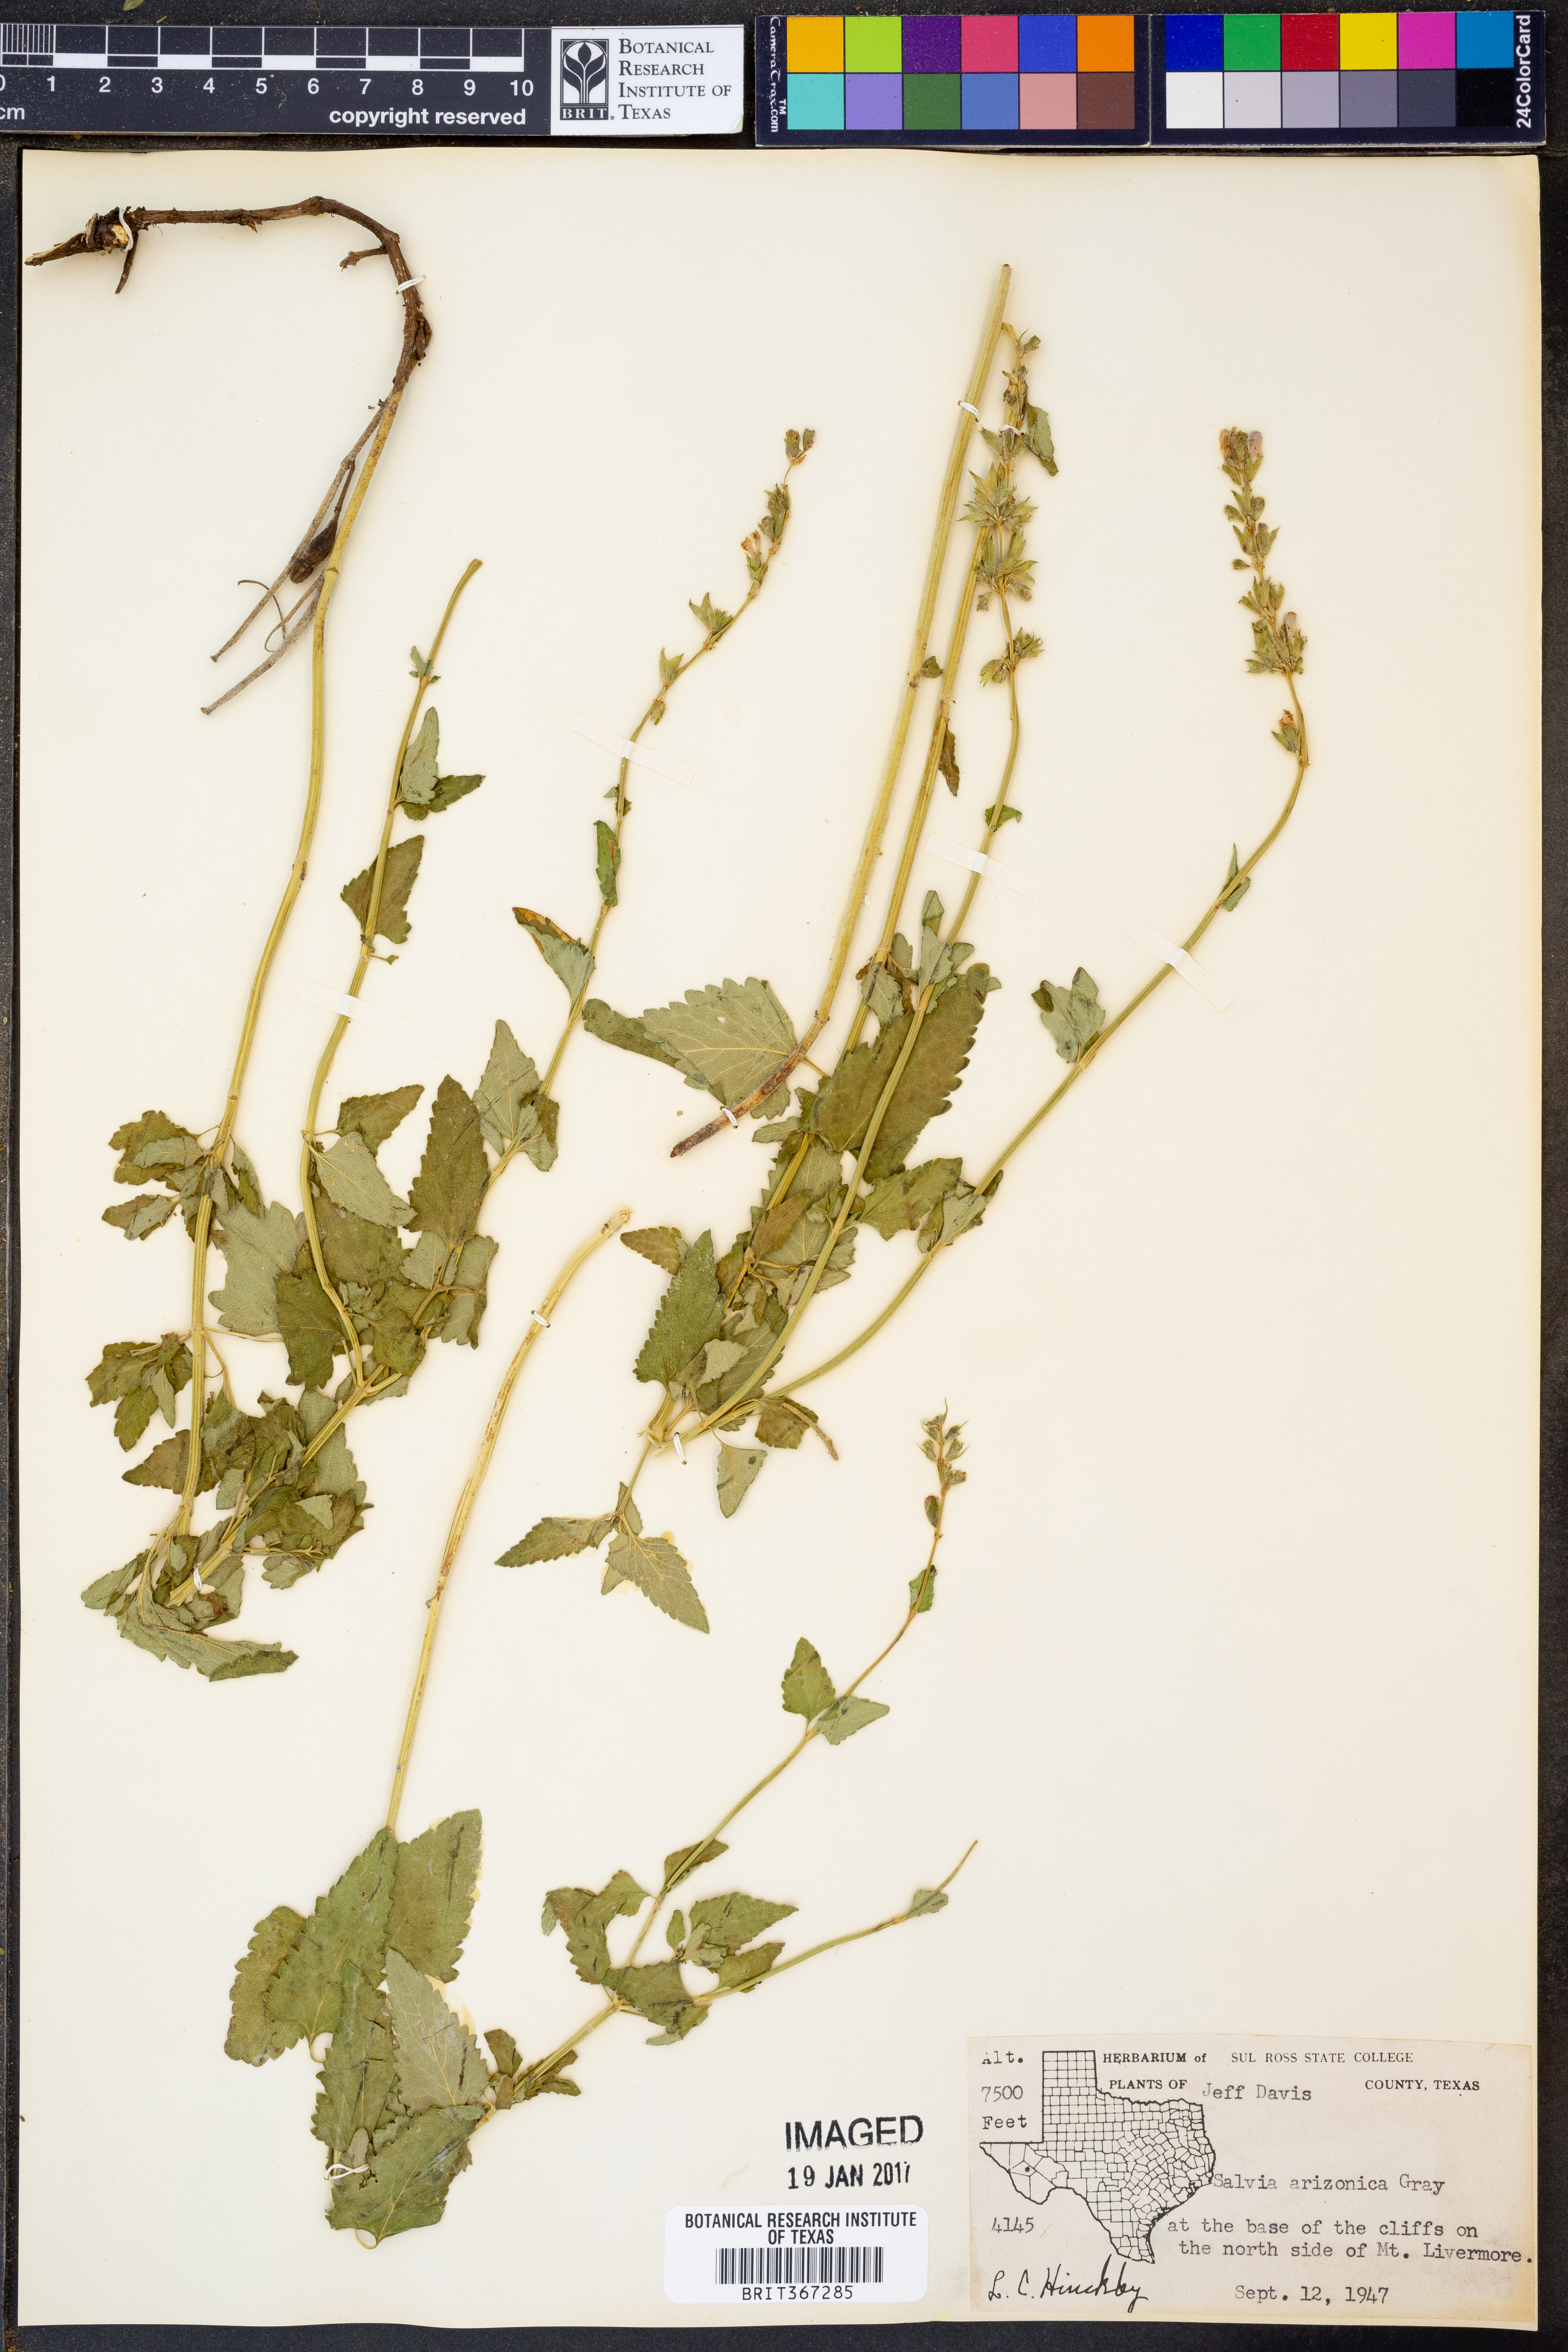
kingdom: Plantae
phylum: Tracheophyta
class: Magnoliopsida
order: Lamiales
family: Lamiaceae
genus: Salvia
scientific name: Salvia arizonica
